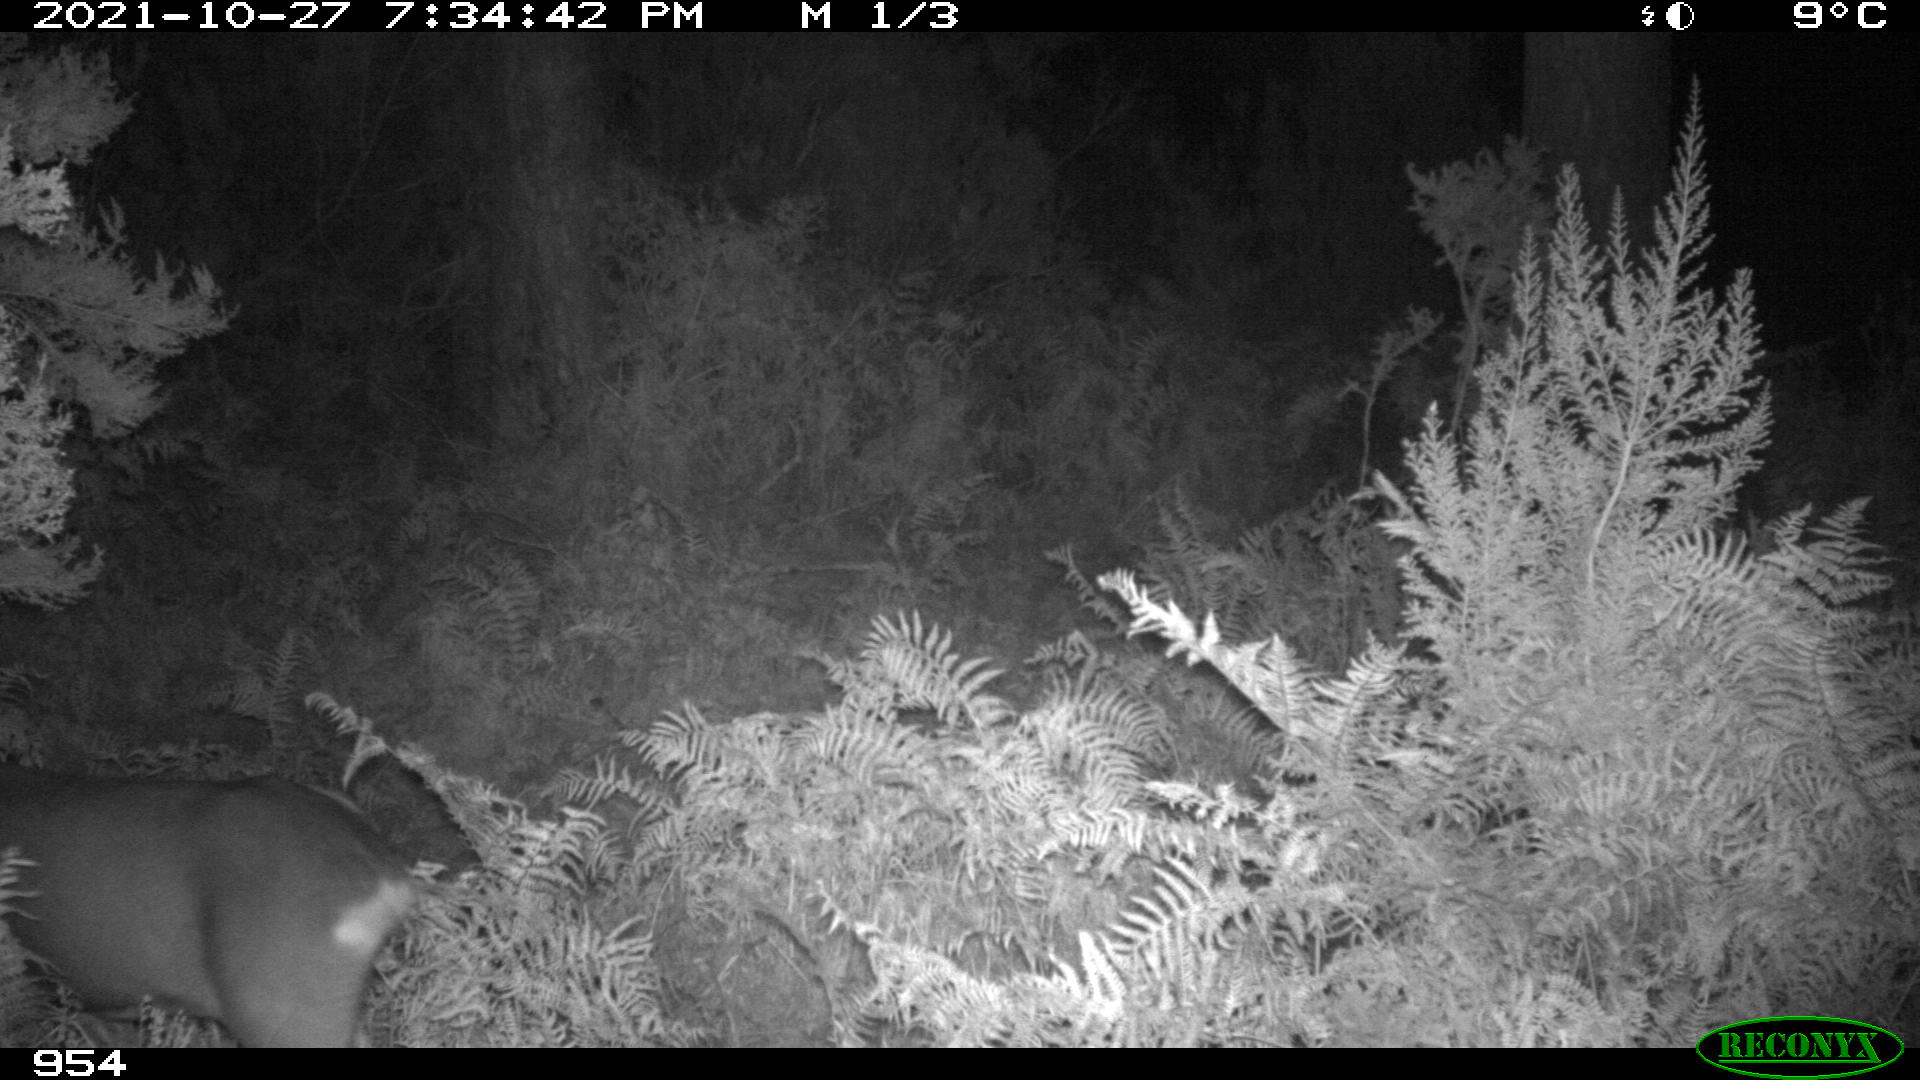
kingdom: Animalia
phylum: Chordata
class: Mammalia
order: Artiodactyla
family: Cervidae
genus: Capreolus
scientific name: Capreolus capreolus
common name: Western roe deer
